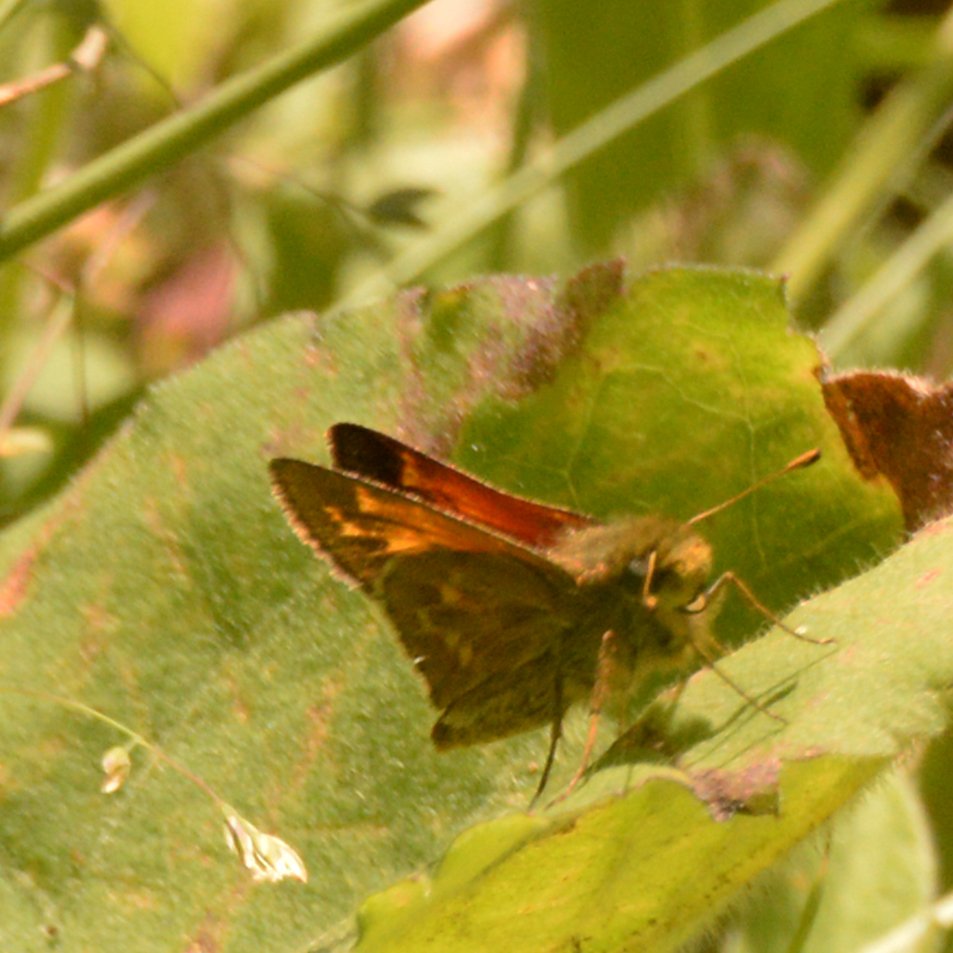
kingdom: Animalia
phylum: Arthropoda
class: Insecta
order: Lepidoptera
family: Hesperiidae
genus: Hesperia
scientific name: Hesperia sassacus
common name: Sassacus Skipper
